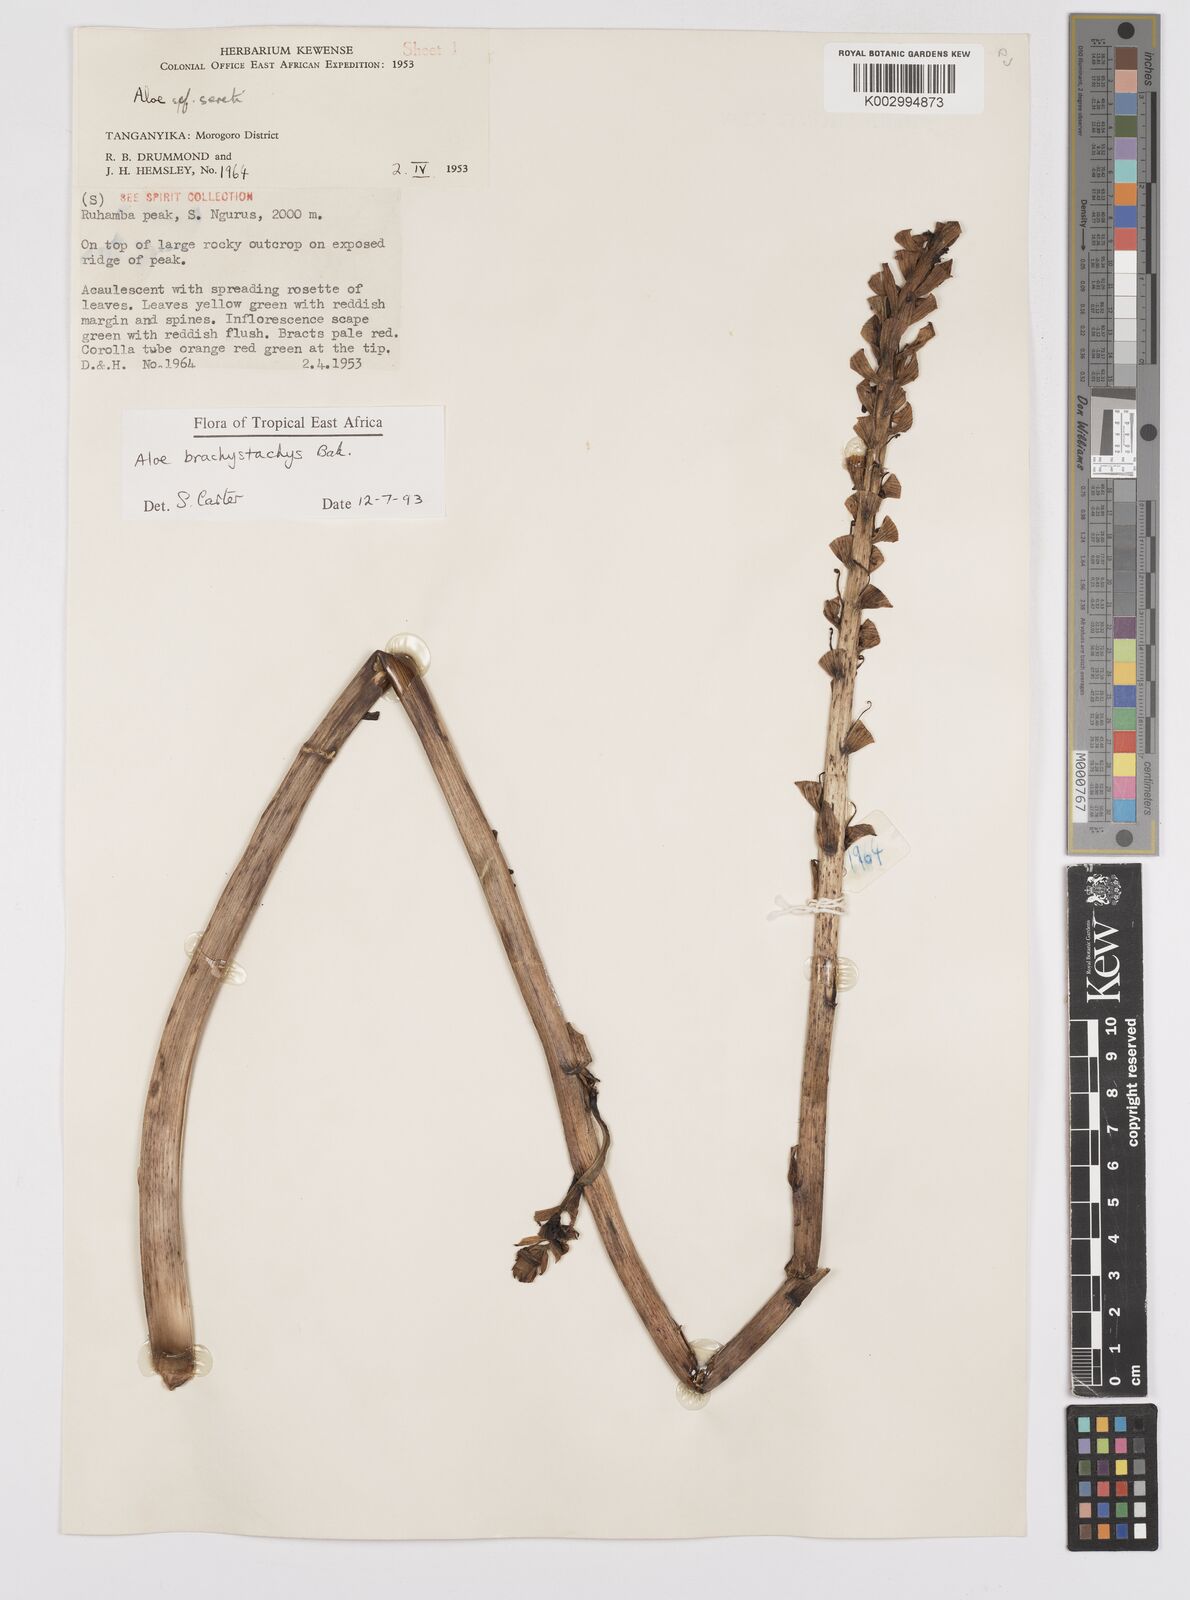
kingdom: Plantae
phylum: Tracheophyta
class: Liliopsida
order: Asparagales
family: Asphodelaceae
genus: Aloe
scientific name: Aloe brachystachys
